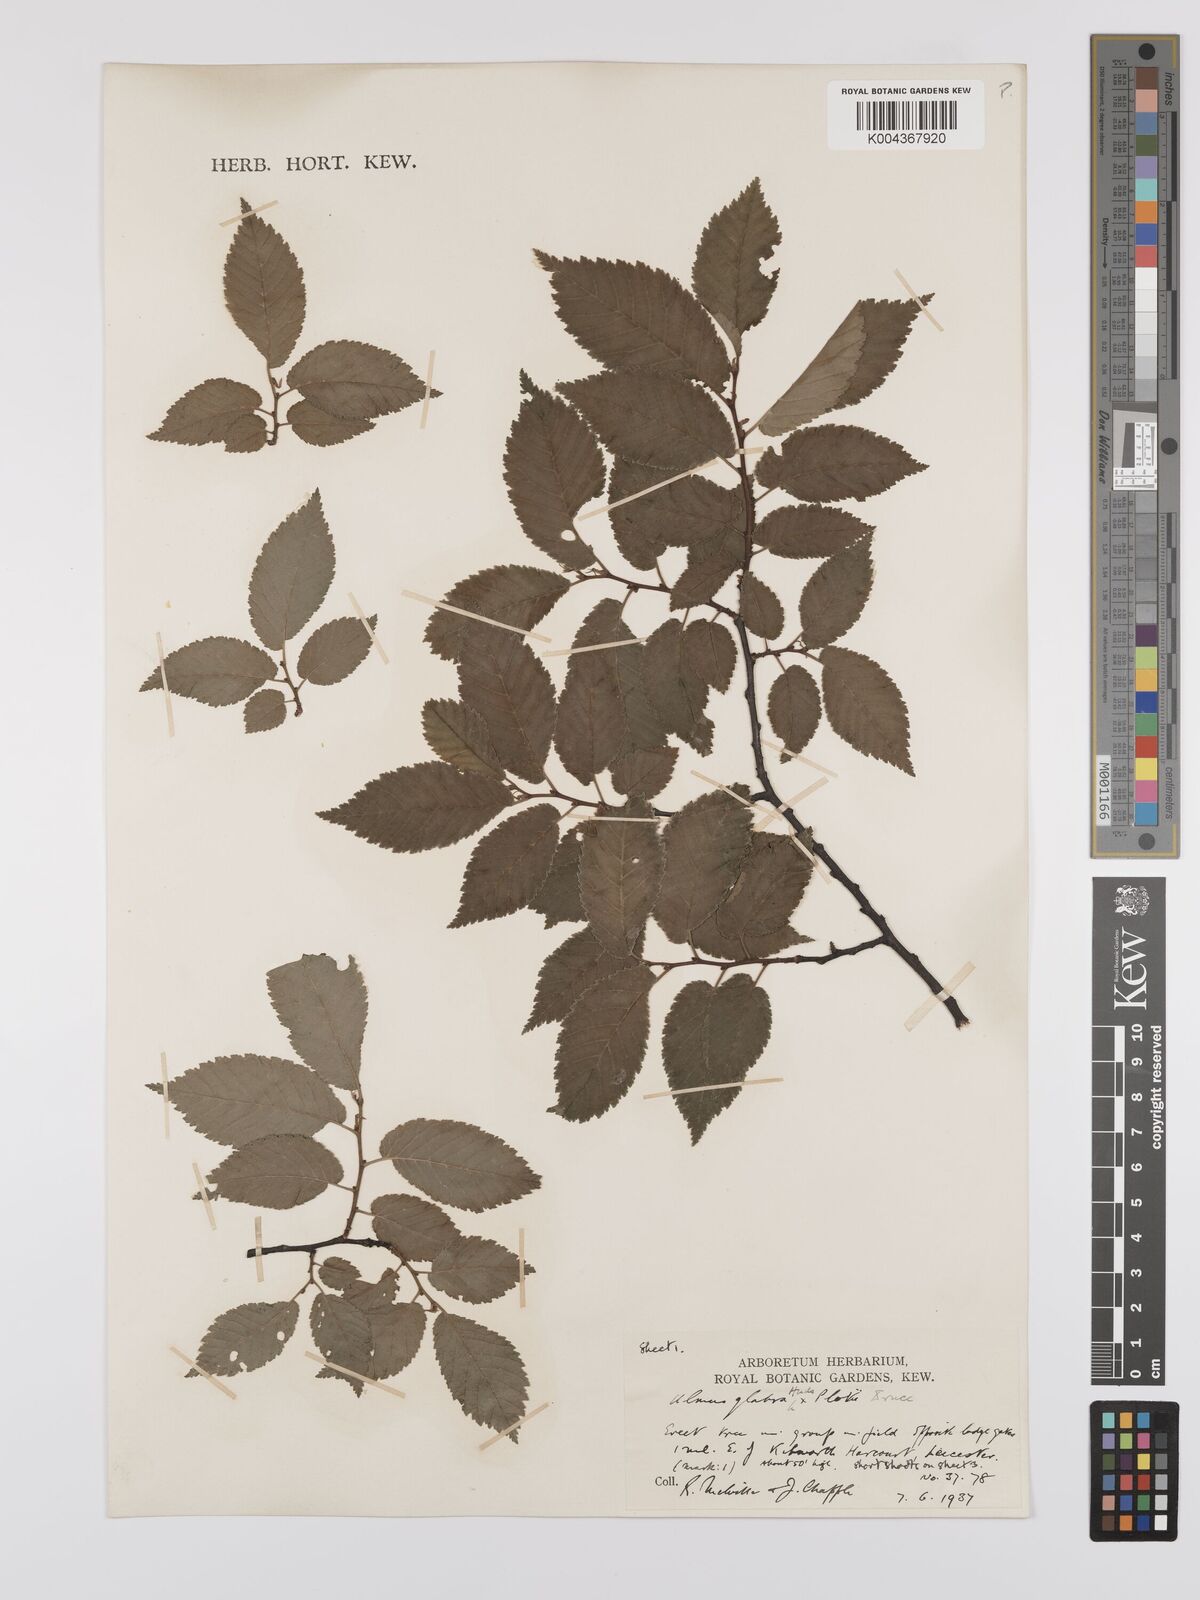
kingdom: Plantae
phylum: Tracheophyta
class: Magnoliopsida
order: Rosales
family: Ulmaceae
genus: Ulmus
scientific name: Ulmus
